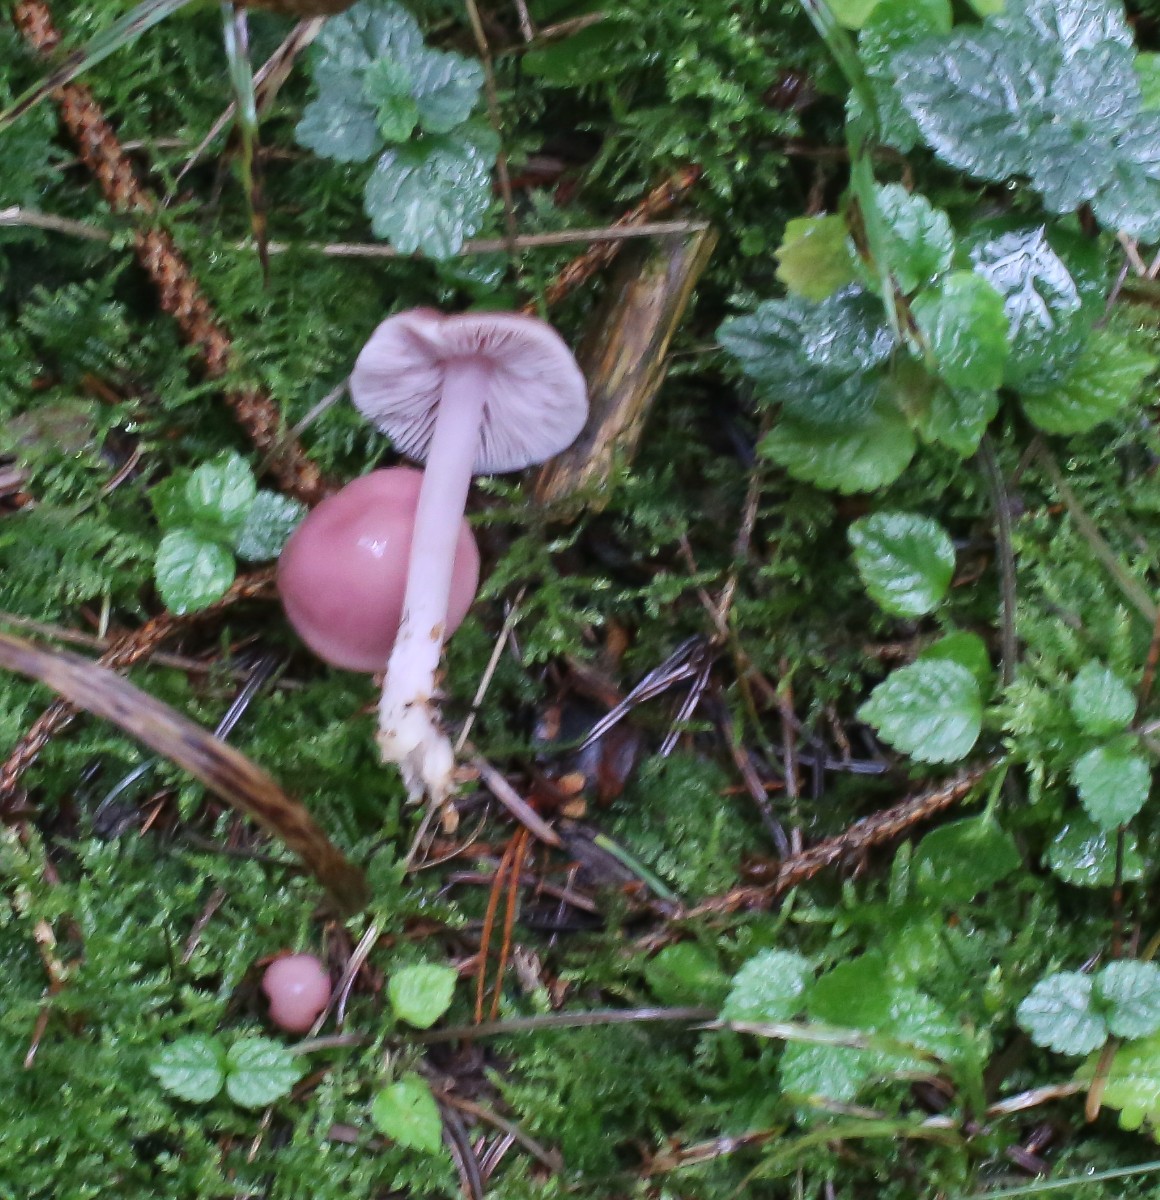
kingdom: Fungi
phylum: Basidiomycota
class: Agaricomycetes
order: Agaricales
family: Mycenaceae
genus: Mycena
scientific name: Mycena rosea
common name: rosa huesvamp
